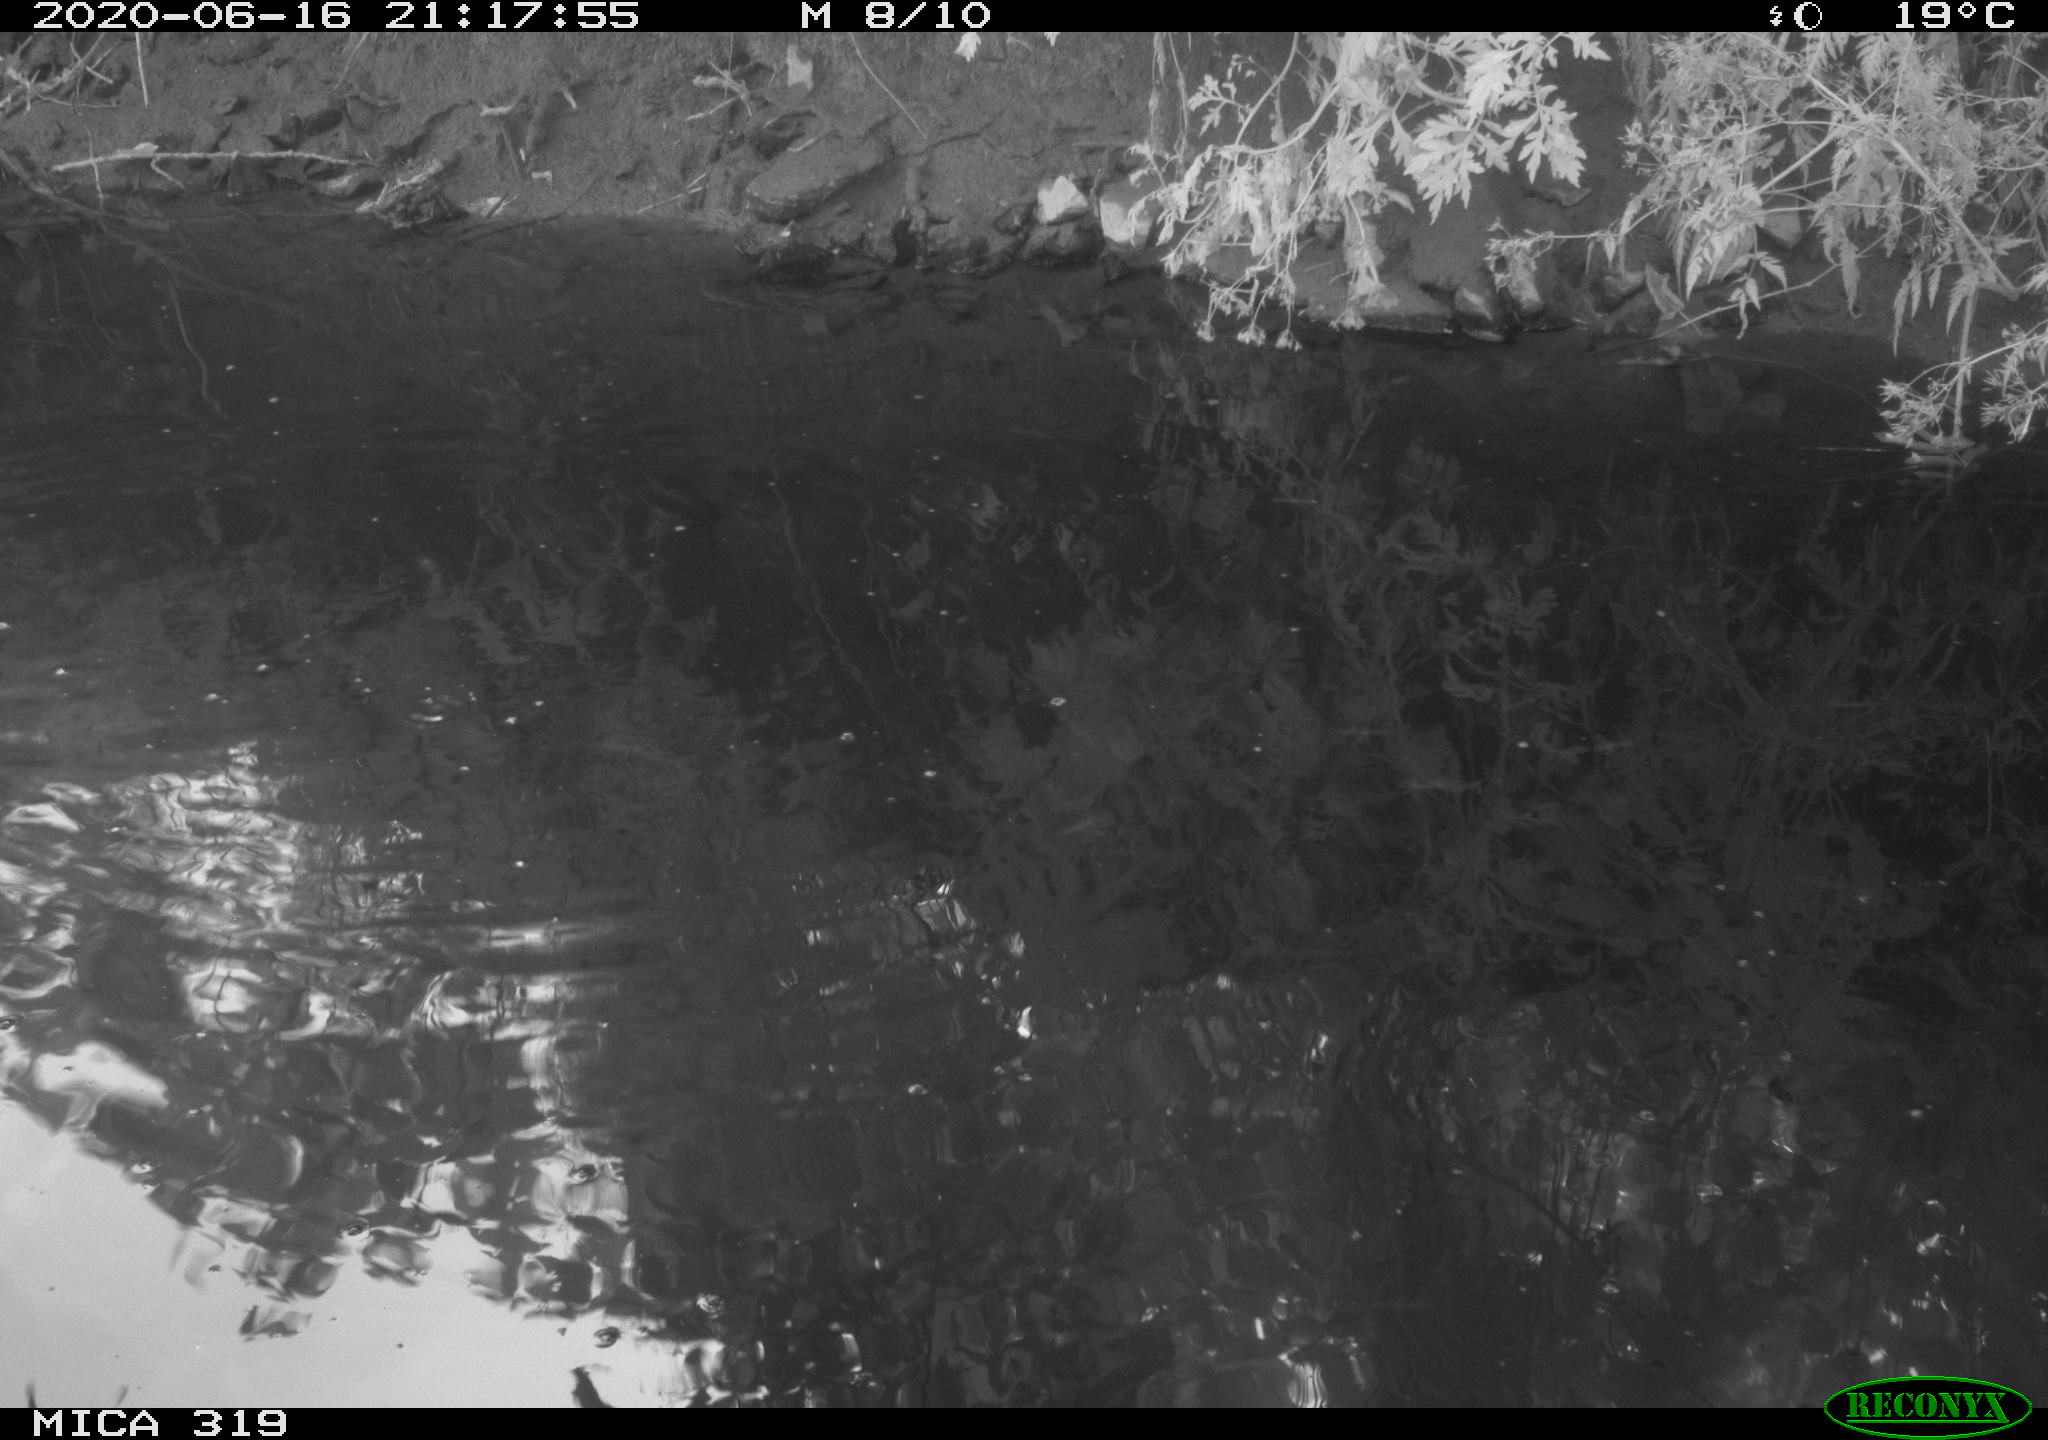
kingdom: Animalia
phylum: Chordata
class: Aves
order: Anseriformes
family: Anatidae
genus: Anas
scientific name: Anas platyrhynchos
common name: Mallard
